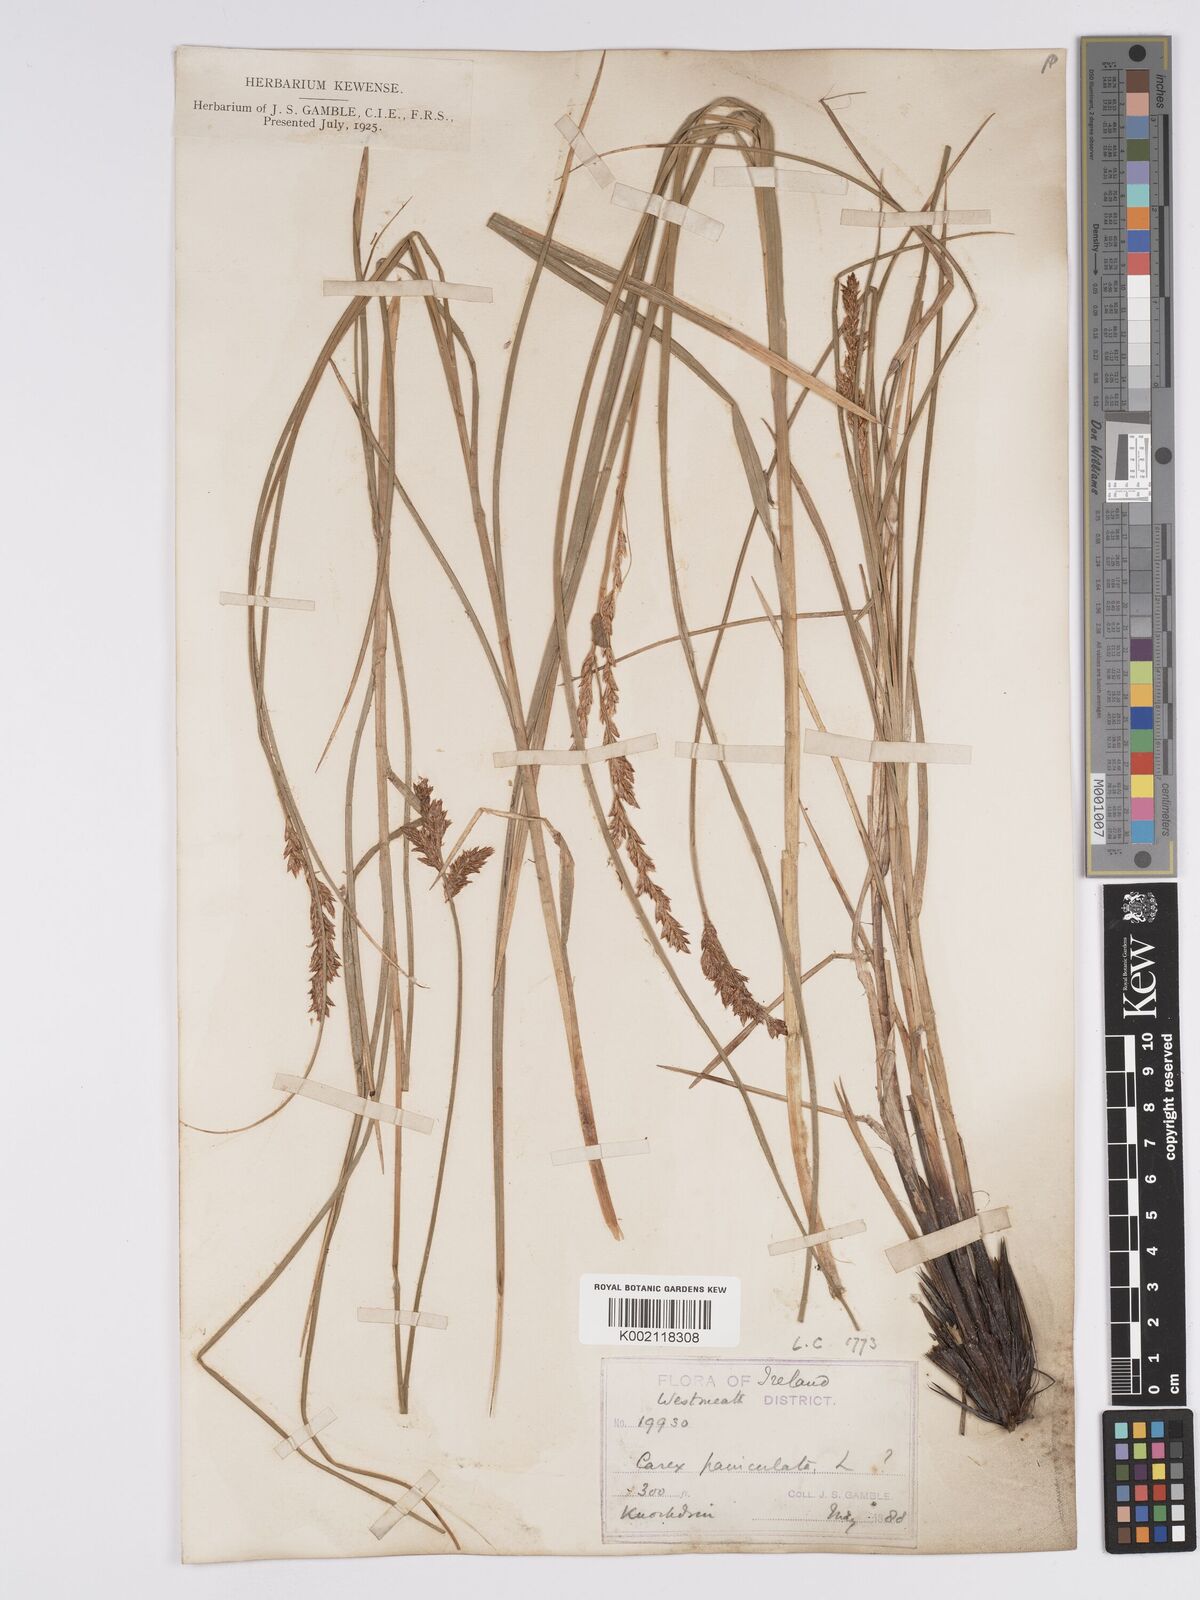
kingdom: Plantae
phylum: Tracheophyta
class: Liliopsida
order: Poales
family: Cyperaceae
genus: Carex
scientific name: Carex paniculata
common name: Greater tussock-sedge
